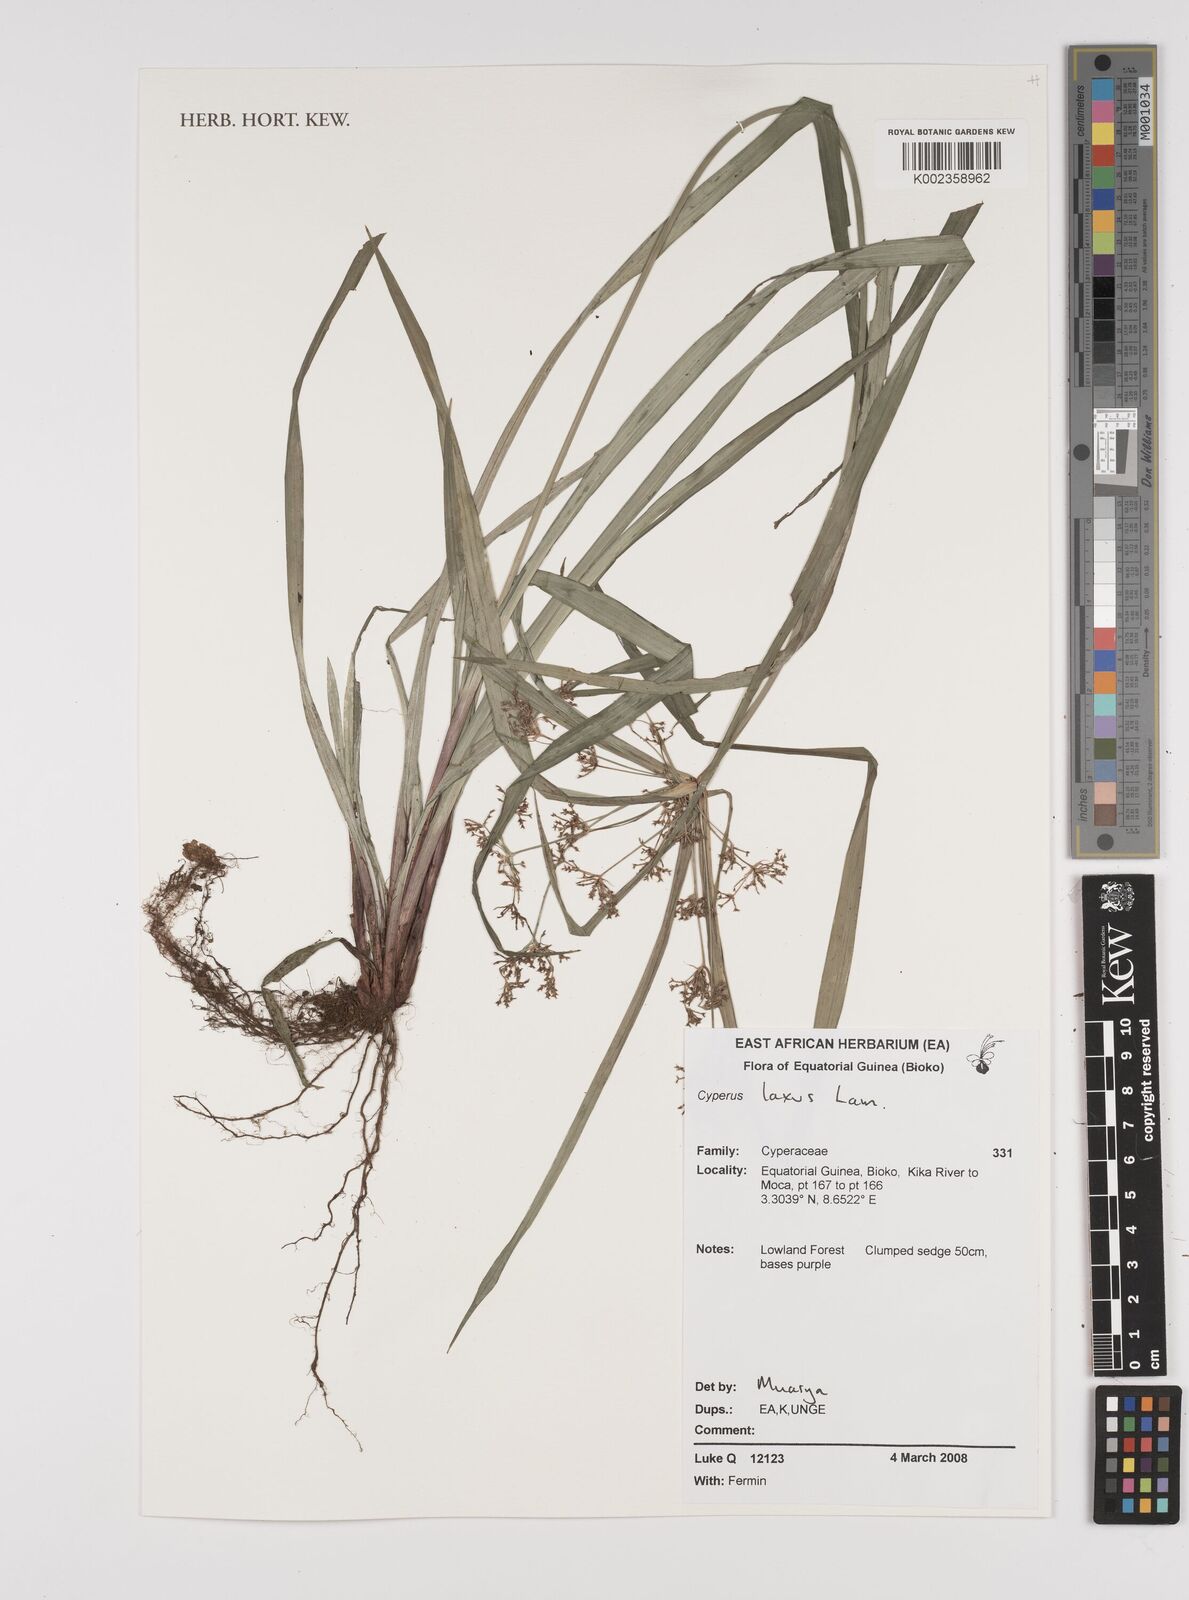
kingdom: Plantae
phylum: Tracheophyta
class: Liliopsida
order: Poales
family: Cyperaceae
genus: Cyperus
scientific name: Cyperus diffusus
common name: Dwarf umbrella grass
